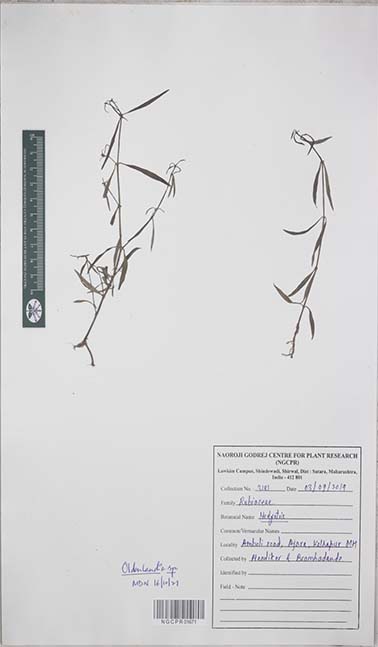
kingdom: Plantae
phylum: Tracheophyta
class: Magnoliopsida
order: Gentianales
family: Rubiaceae
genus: Oldenlandia
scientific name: Oldenlandia
